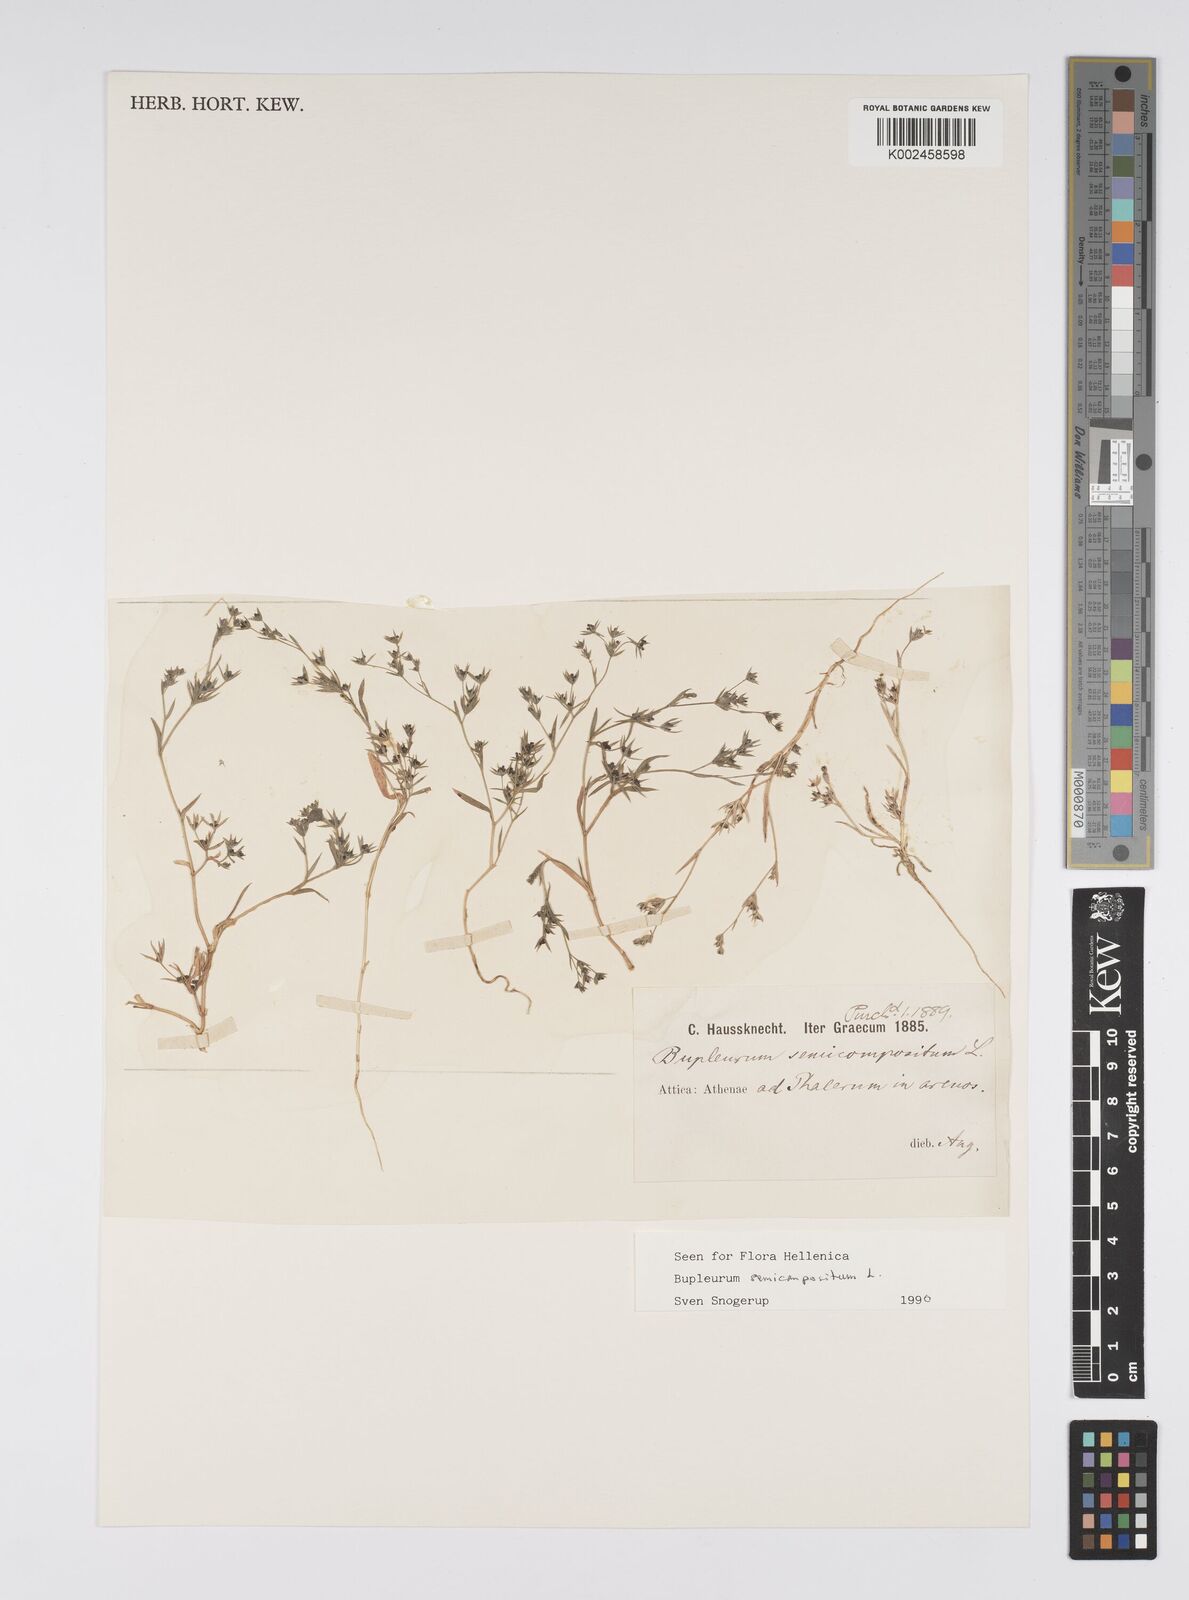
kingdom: Plantae
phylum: Tracheophyta
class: Magnoliopsida
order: Apiales
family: Apiaceae
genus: Bupleurum
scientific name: Bupleurum semicompositum
